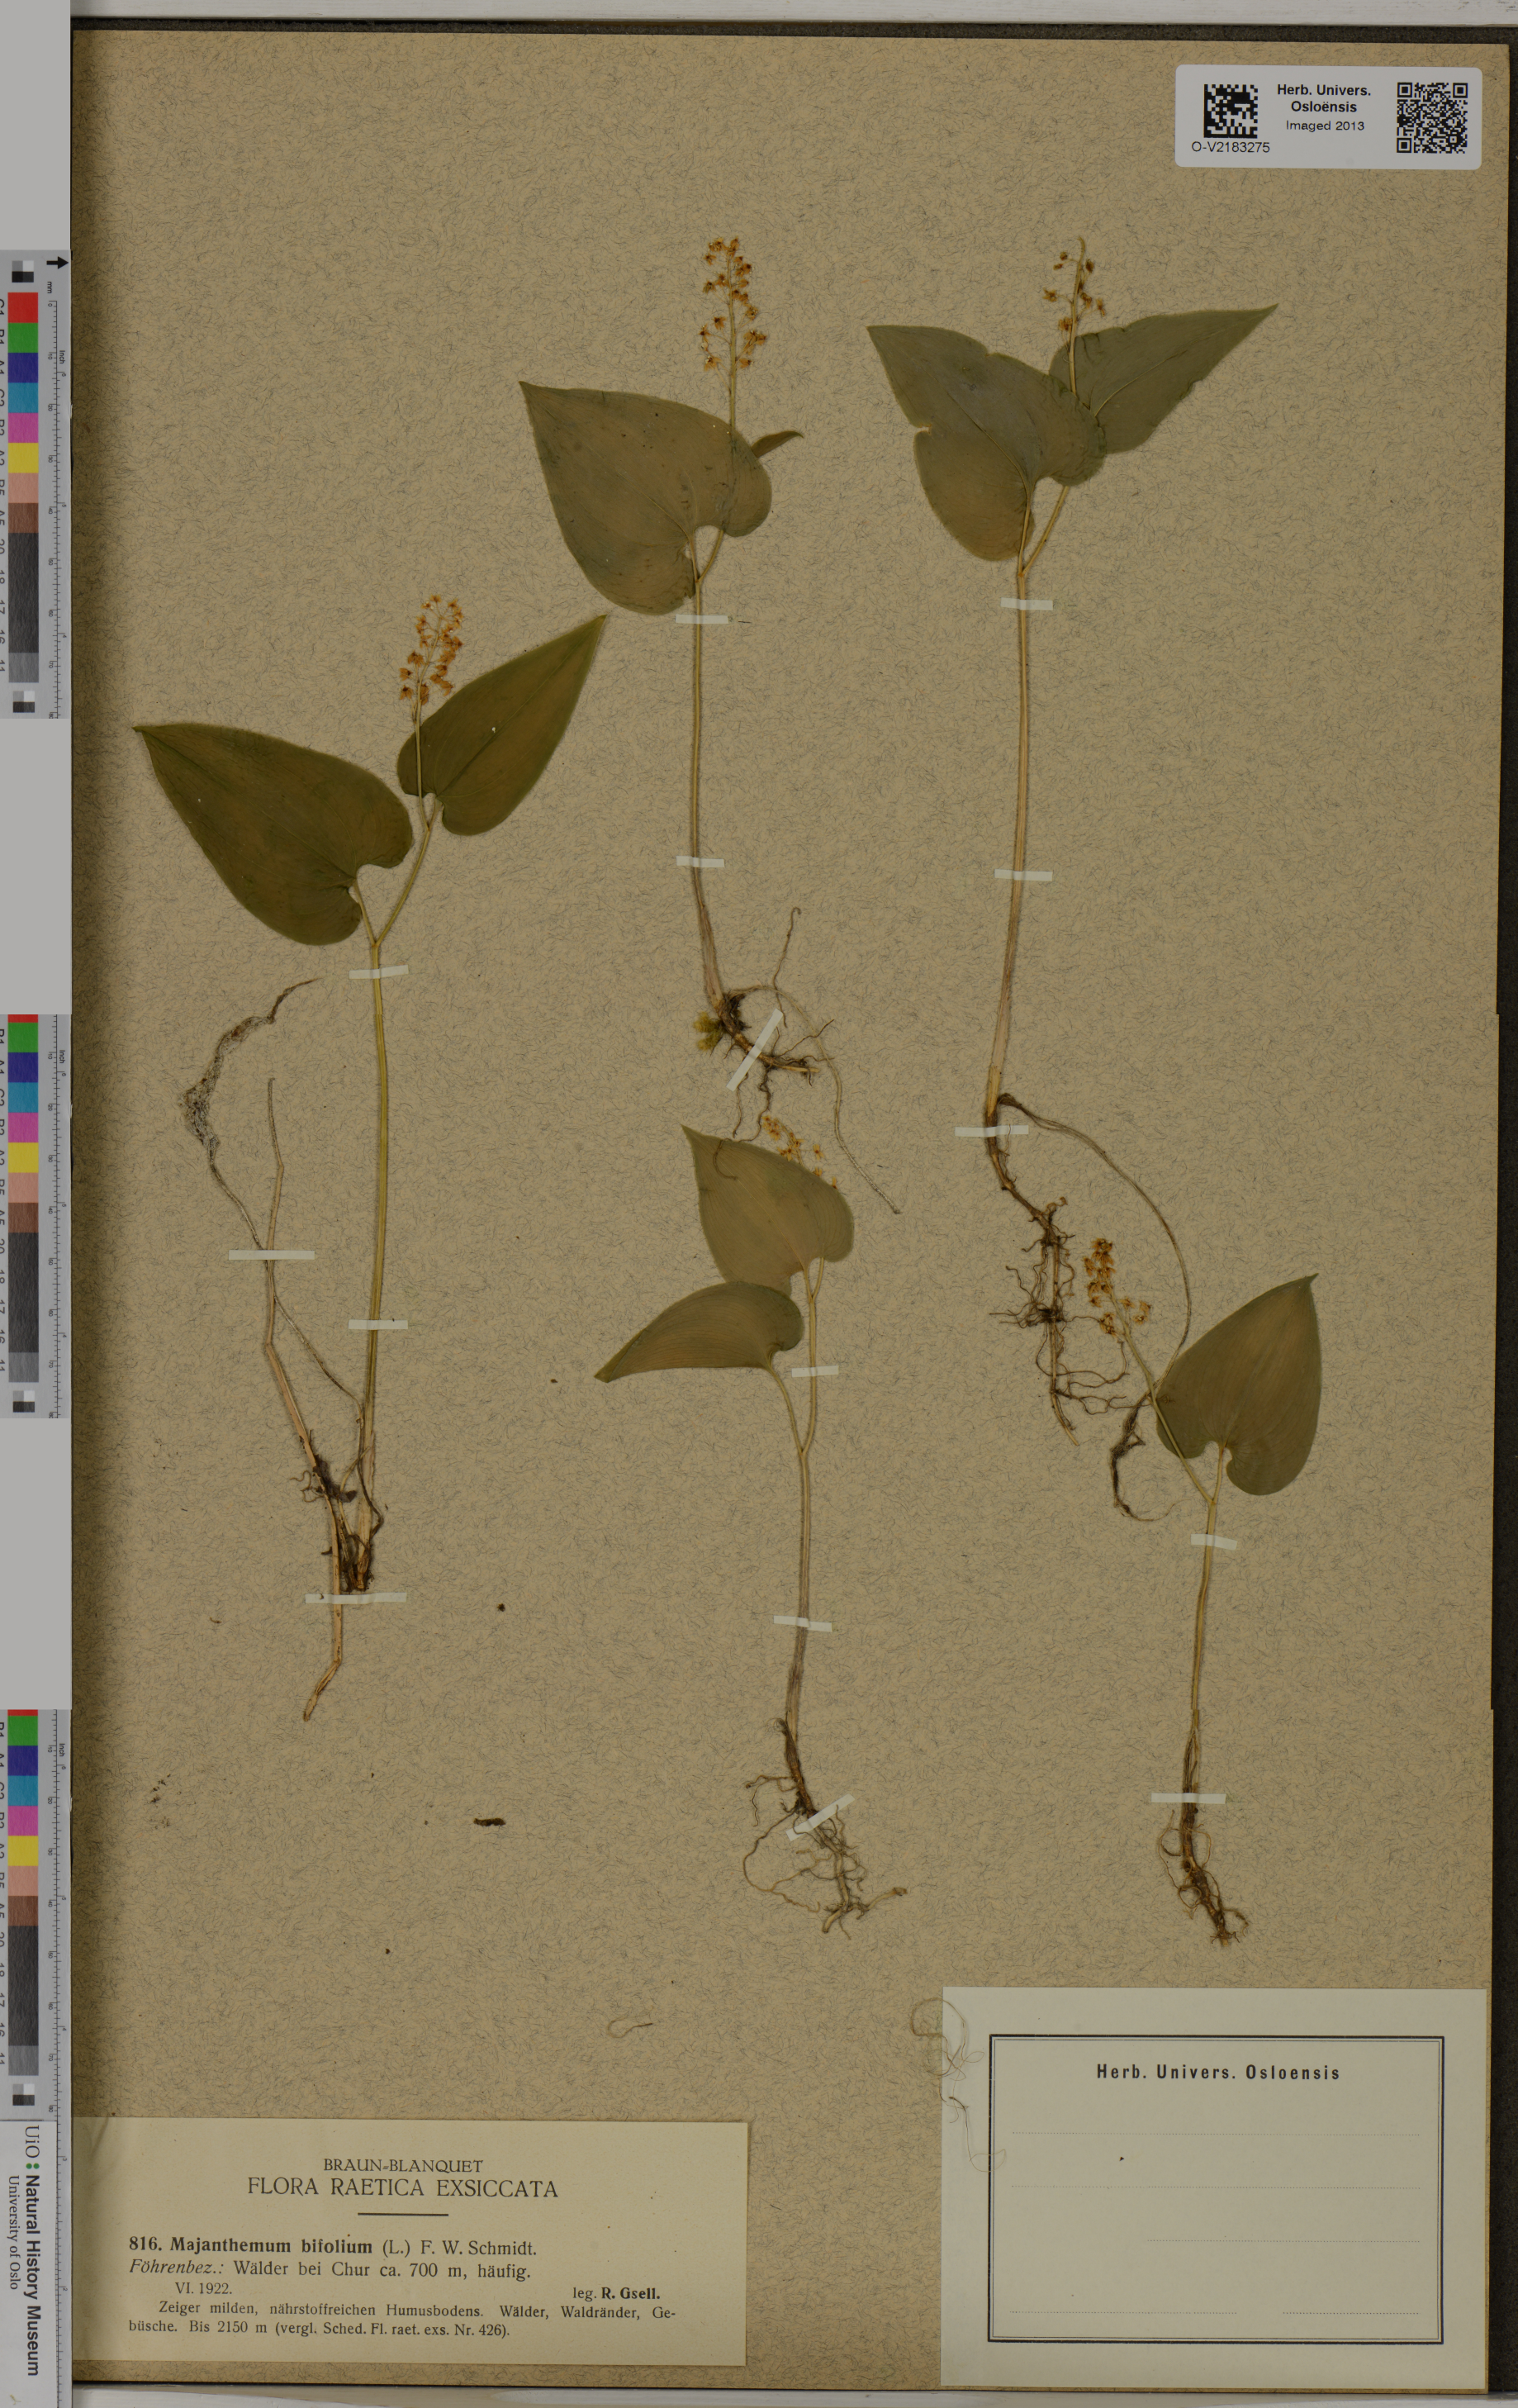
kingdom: Plantae
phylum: Tracheophyta
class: Liliopsida
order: Asparagales
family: Asparagaceae
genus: Maianthemum
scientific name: Maianthemum bifolium
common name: May lily
